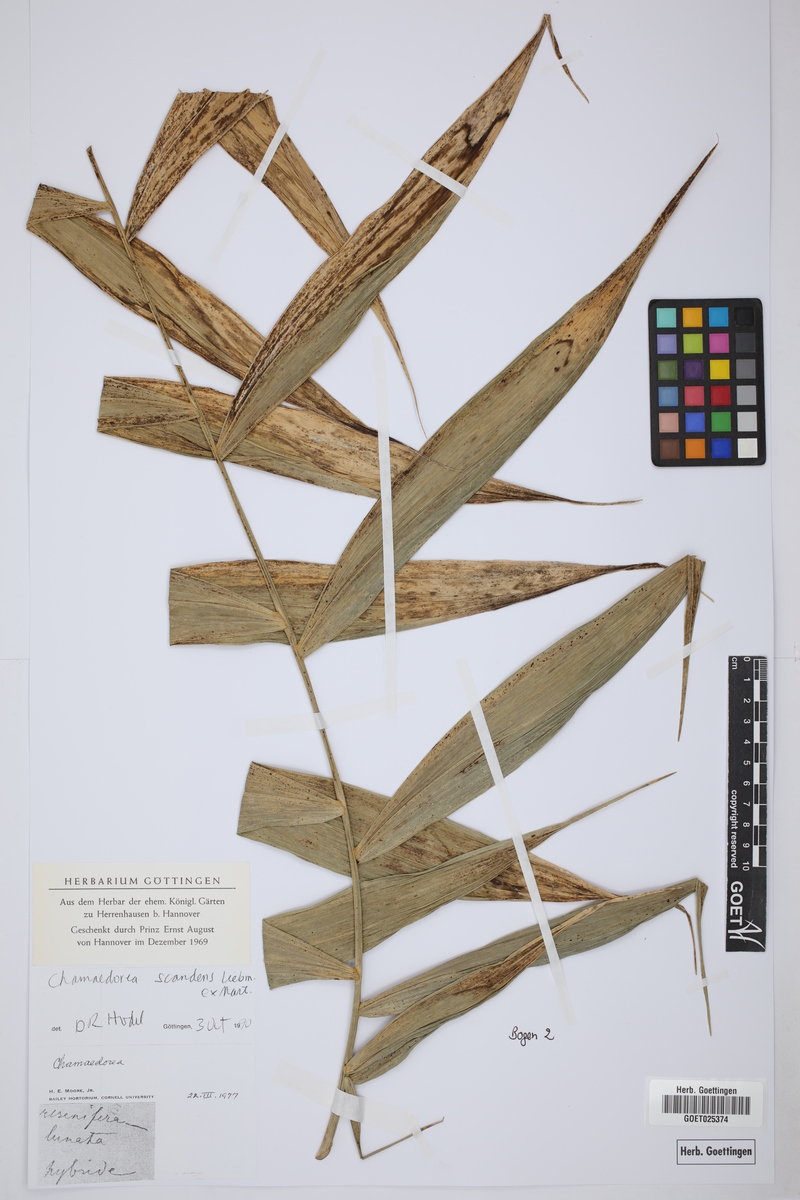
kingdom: Plantae
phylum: Tracheophyta
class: Liliopsida
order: Arecales
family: Arecaceae
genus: Chamaedorea
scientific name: Chamaedorea elatior
